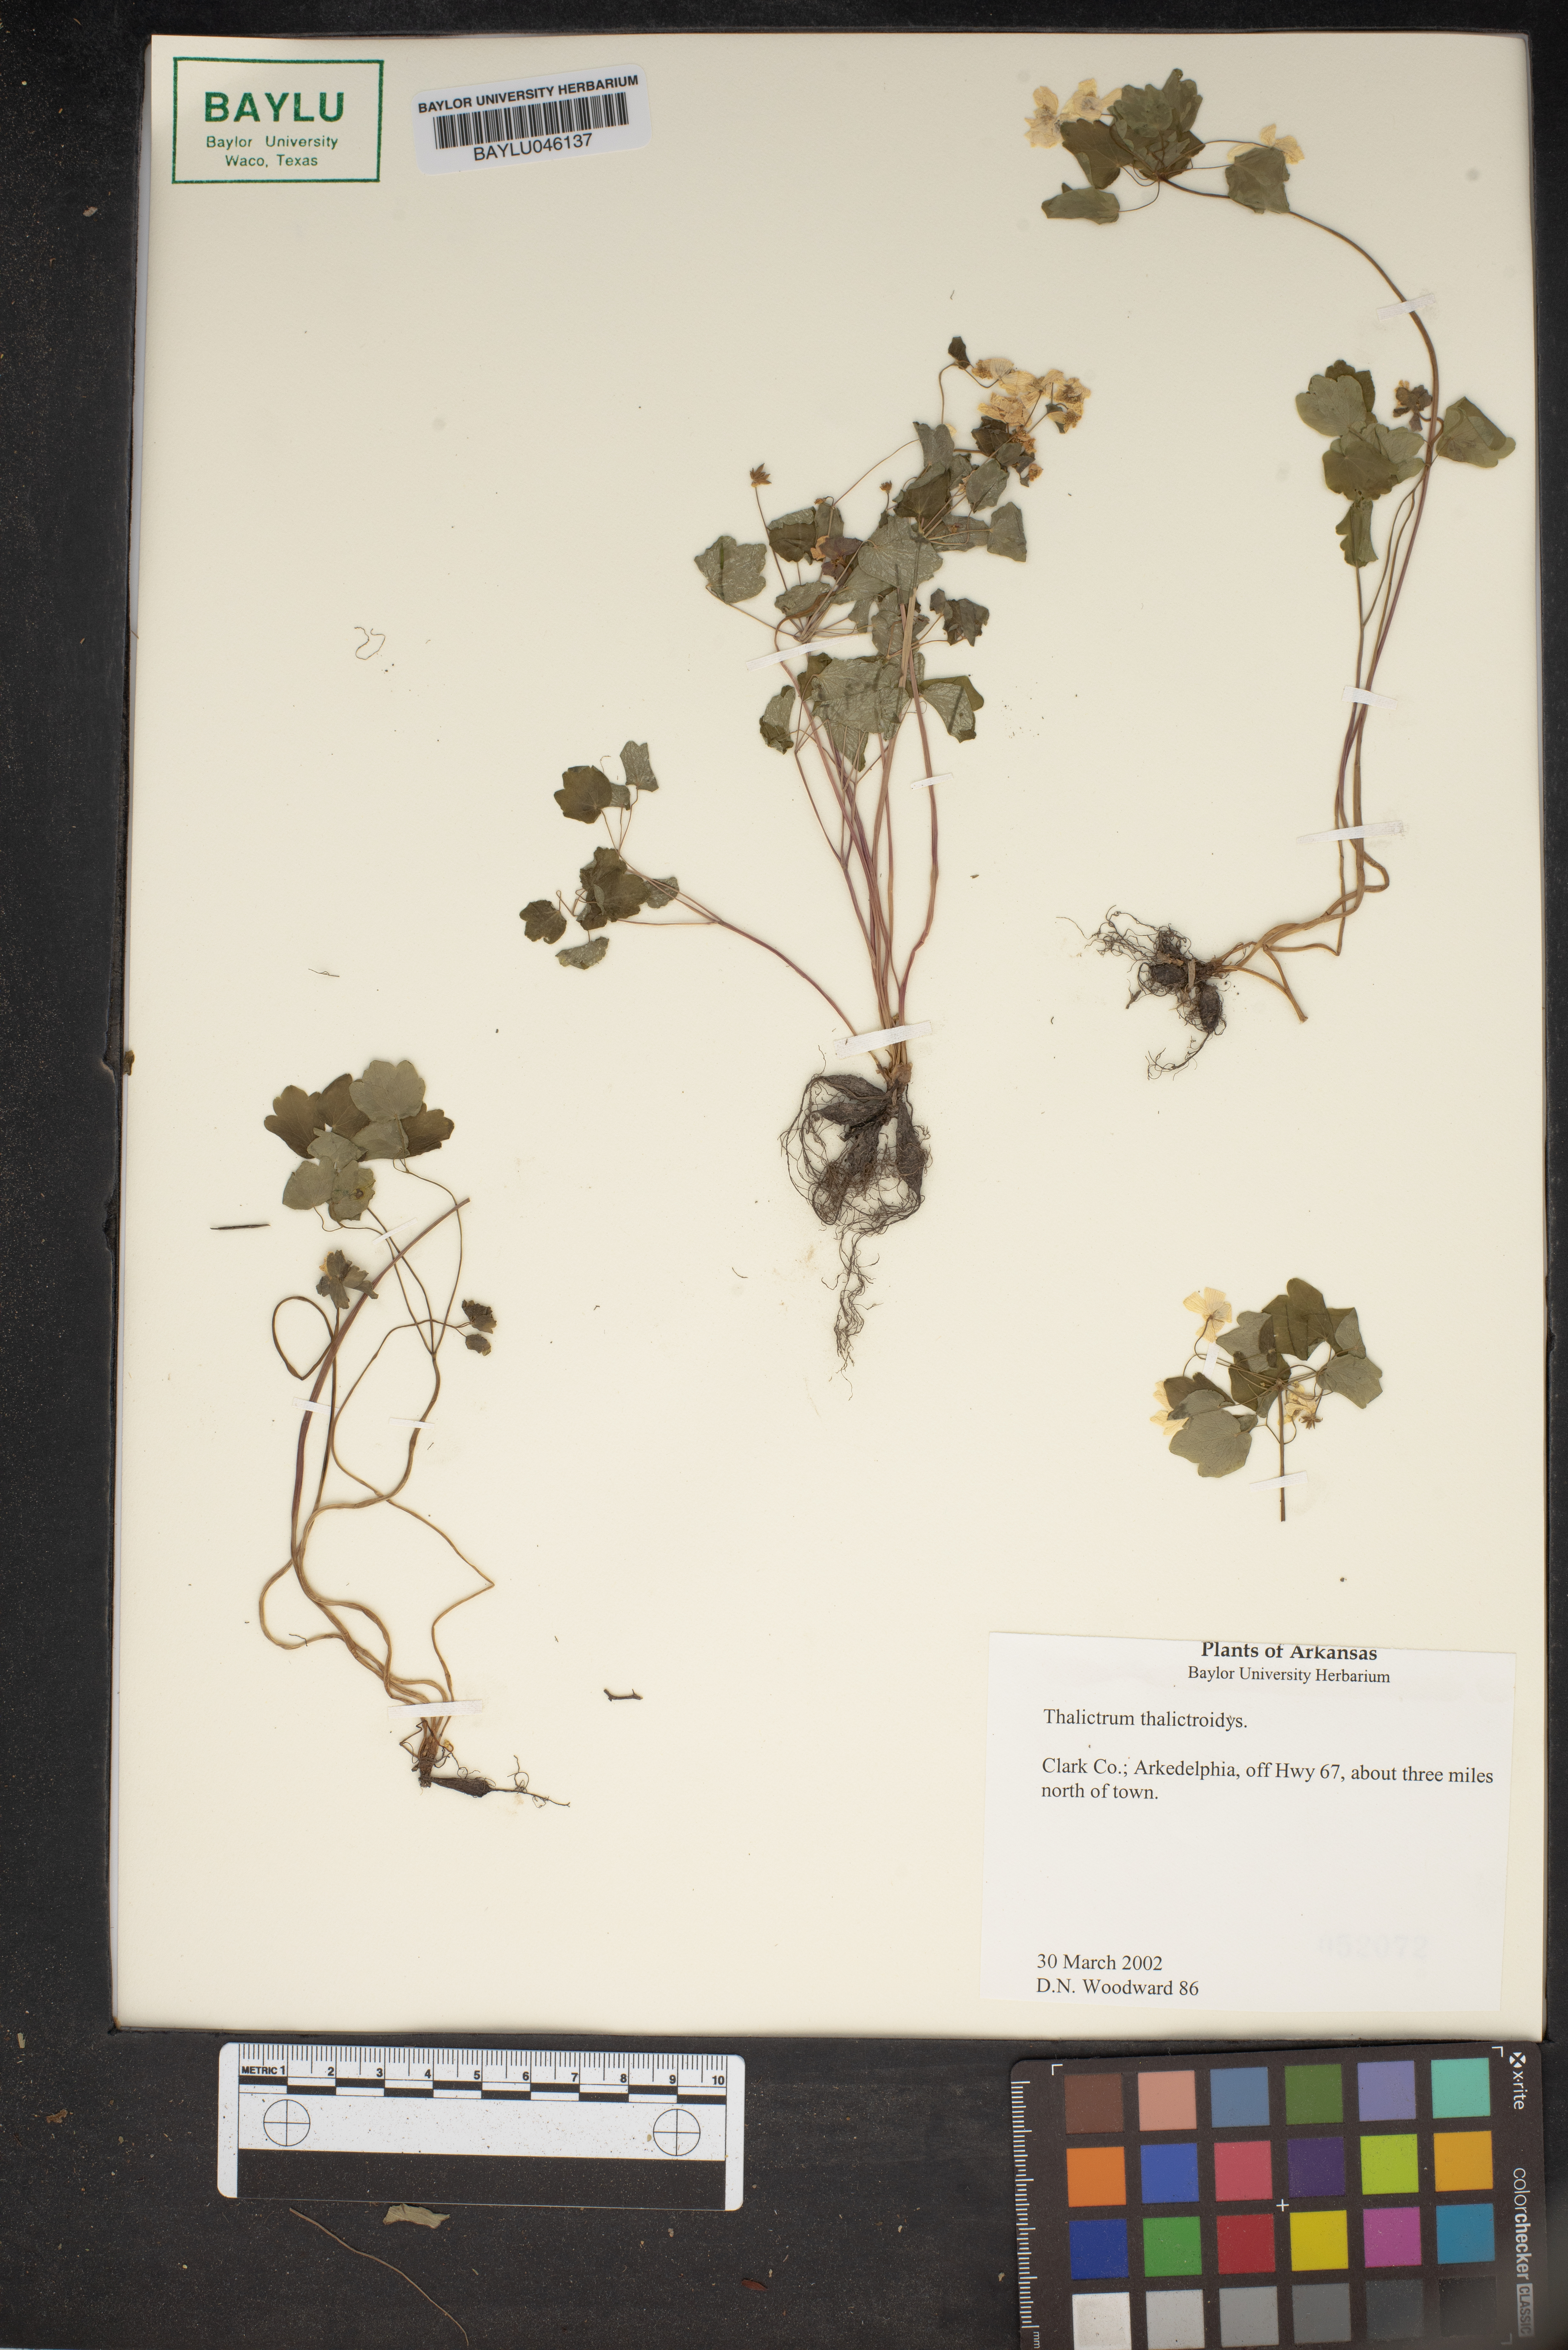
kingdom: Plantae
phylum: Tracheophyta
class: Magnoliopsida
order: Ranunculales
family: Ranunculaceae
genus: Thalictrum
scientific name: Thalictrum thalictroides
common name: Rue-anemone
